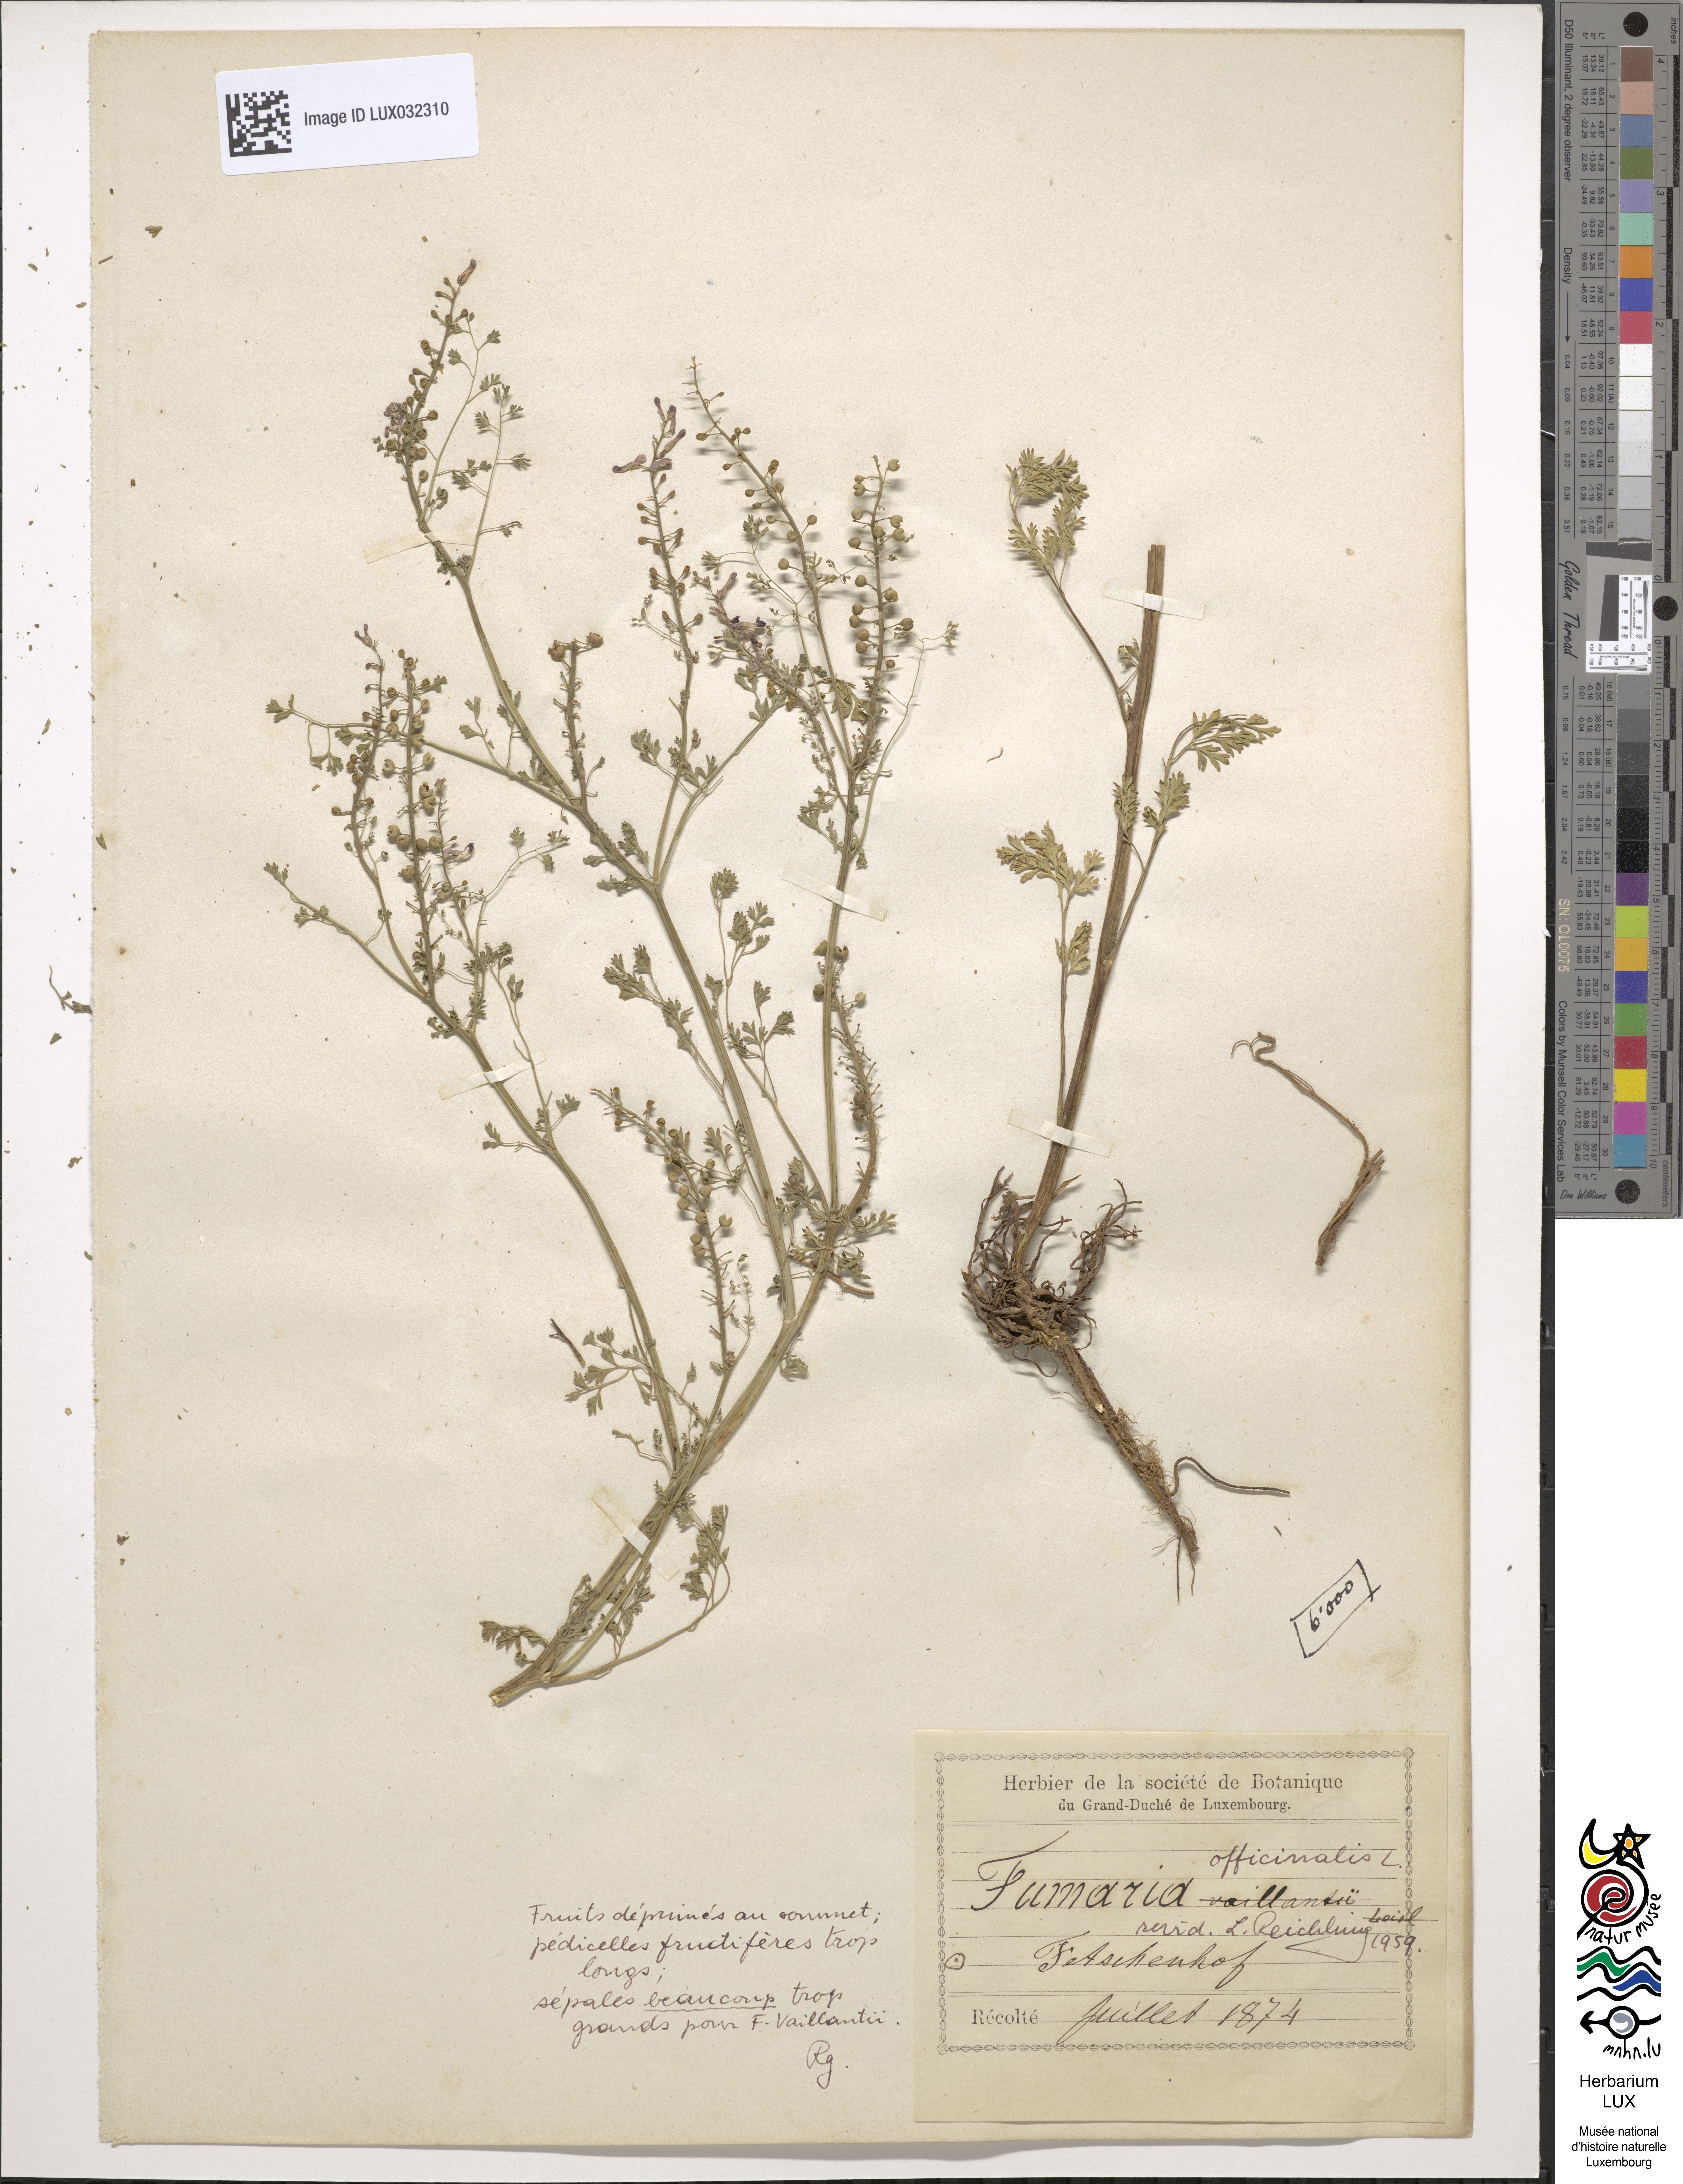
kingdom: Plantae
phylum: Tracheophyta
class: Magnoliopsida
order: Ranunculales
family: Papaveraceae
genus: Fumaria
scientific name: Fumaria officinalis
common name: Common fumitory
